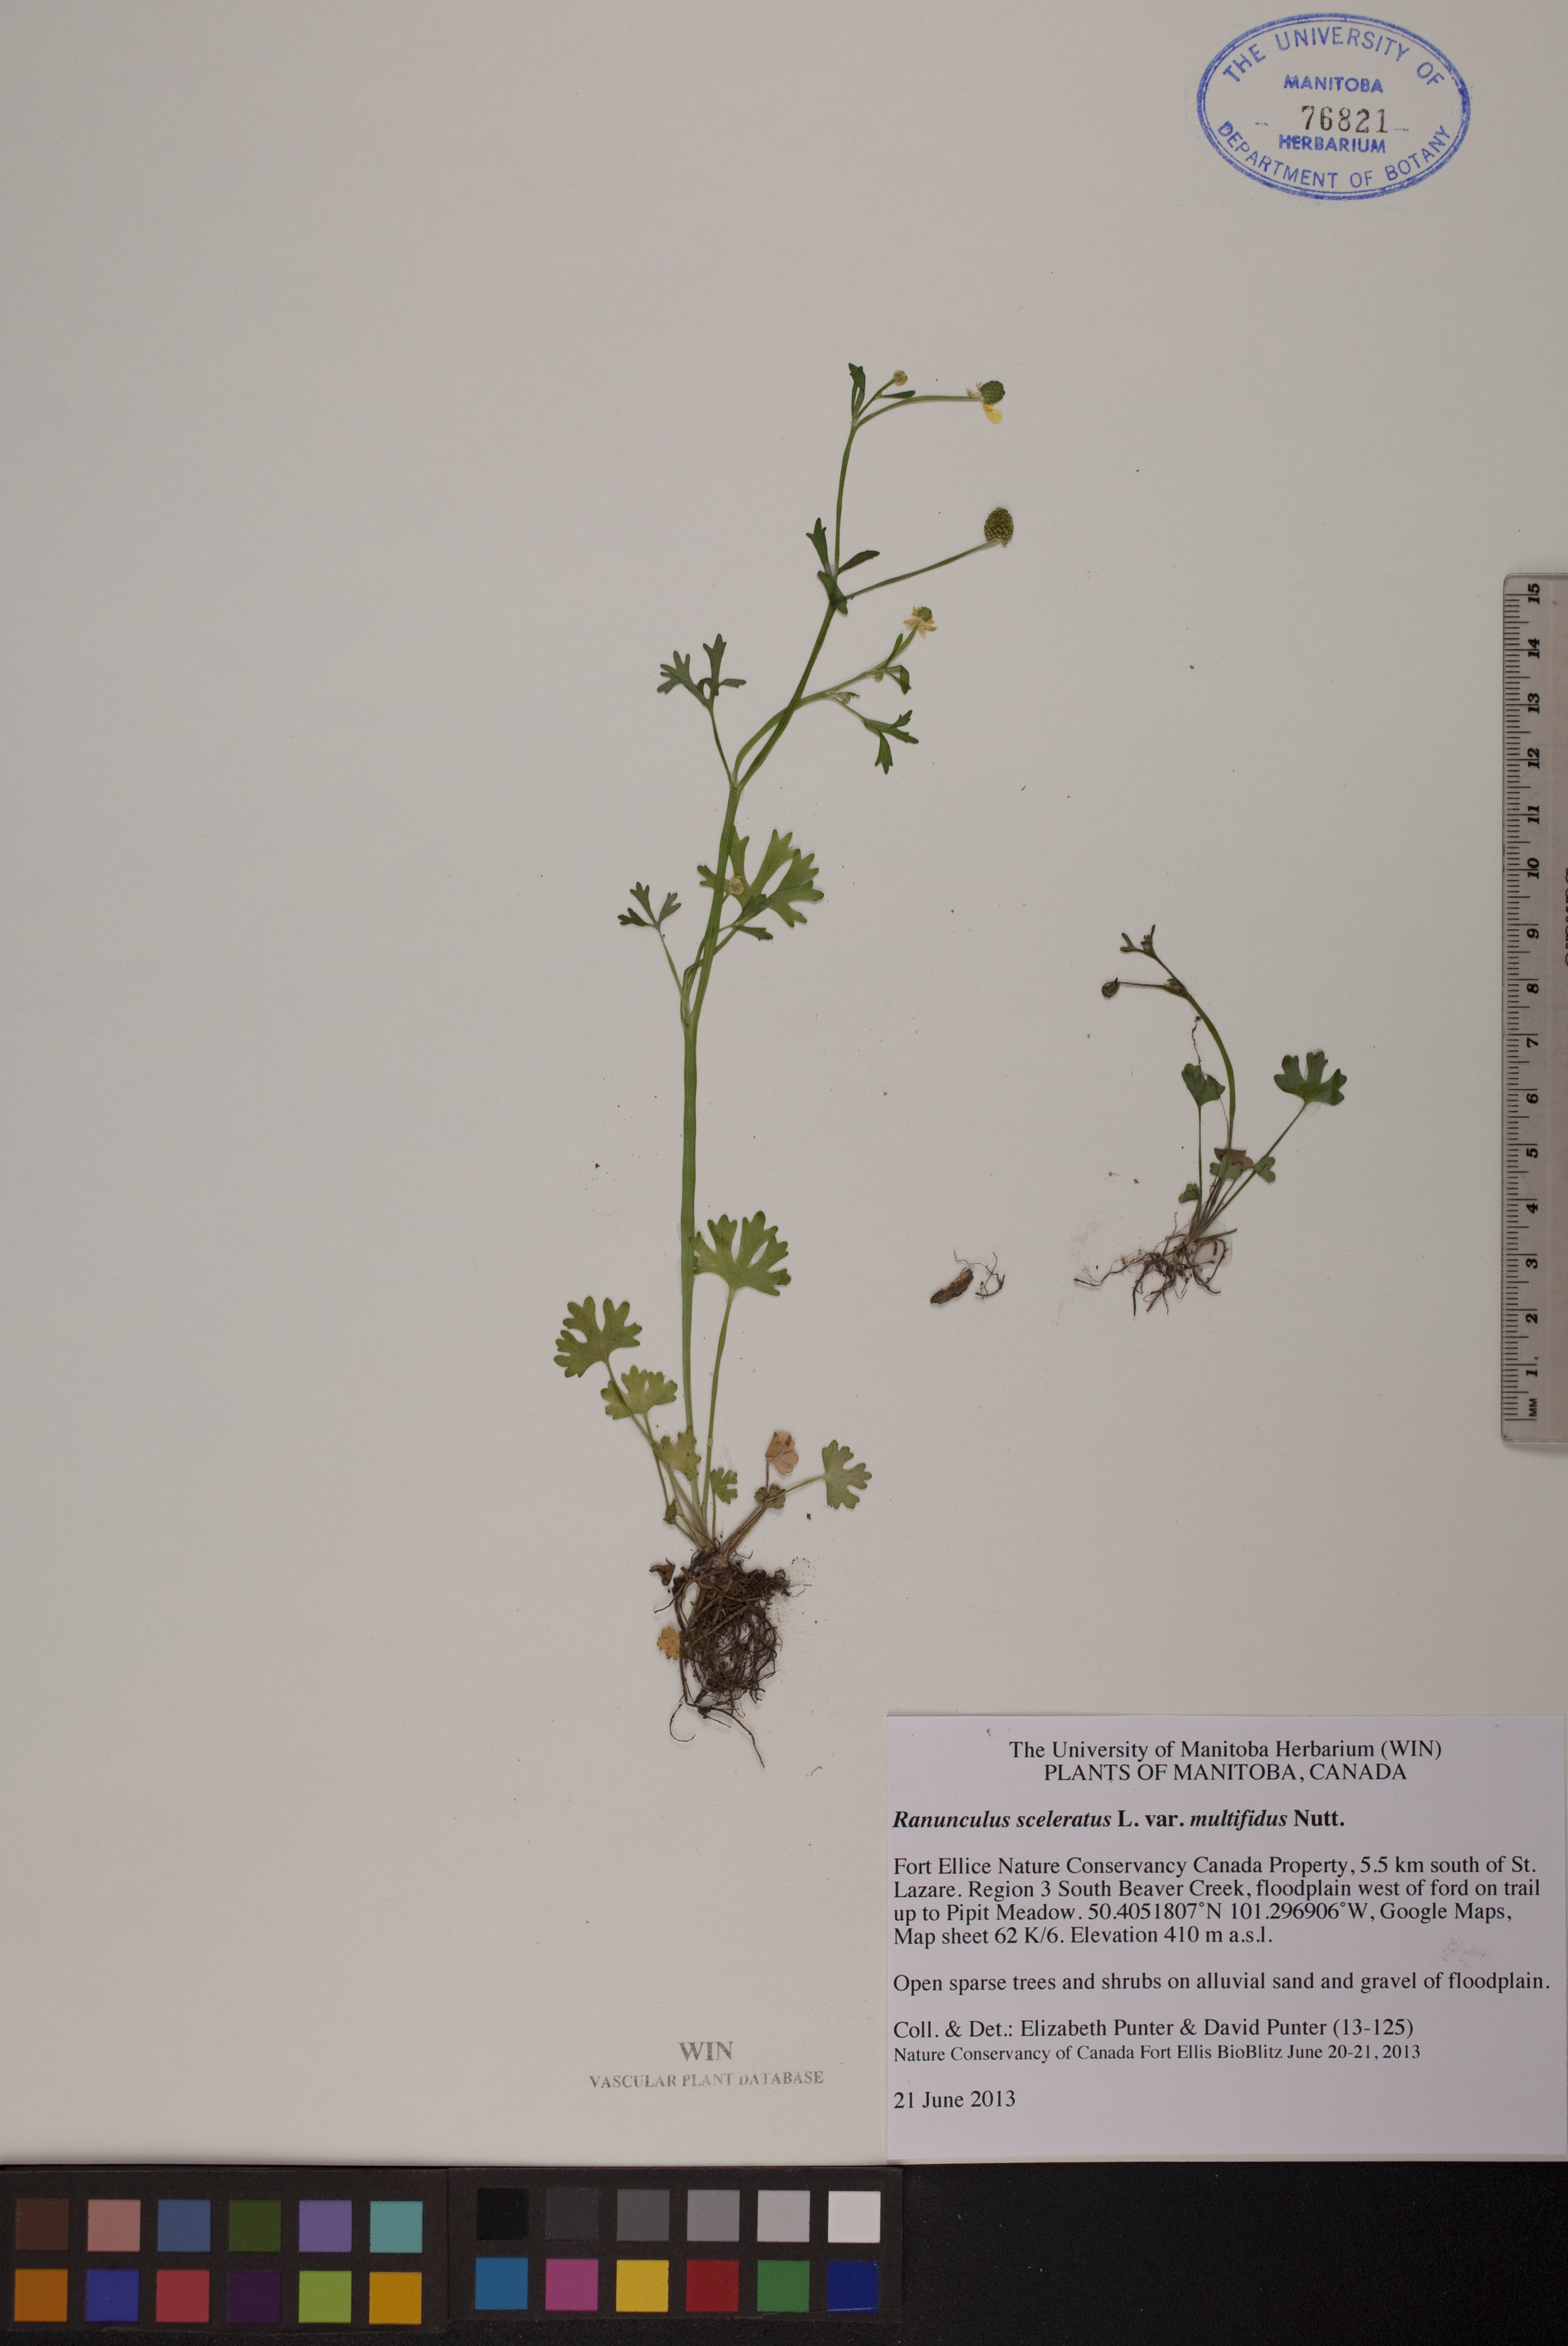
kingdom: Plantae
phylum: Tracheophyta
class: Magnoliopsida
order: Ranunculales
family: Ranunculaceae
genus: Ranunculus
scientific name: Ranunculus sceleratus
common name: Celery-leaved buttercup
